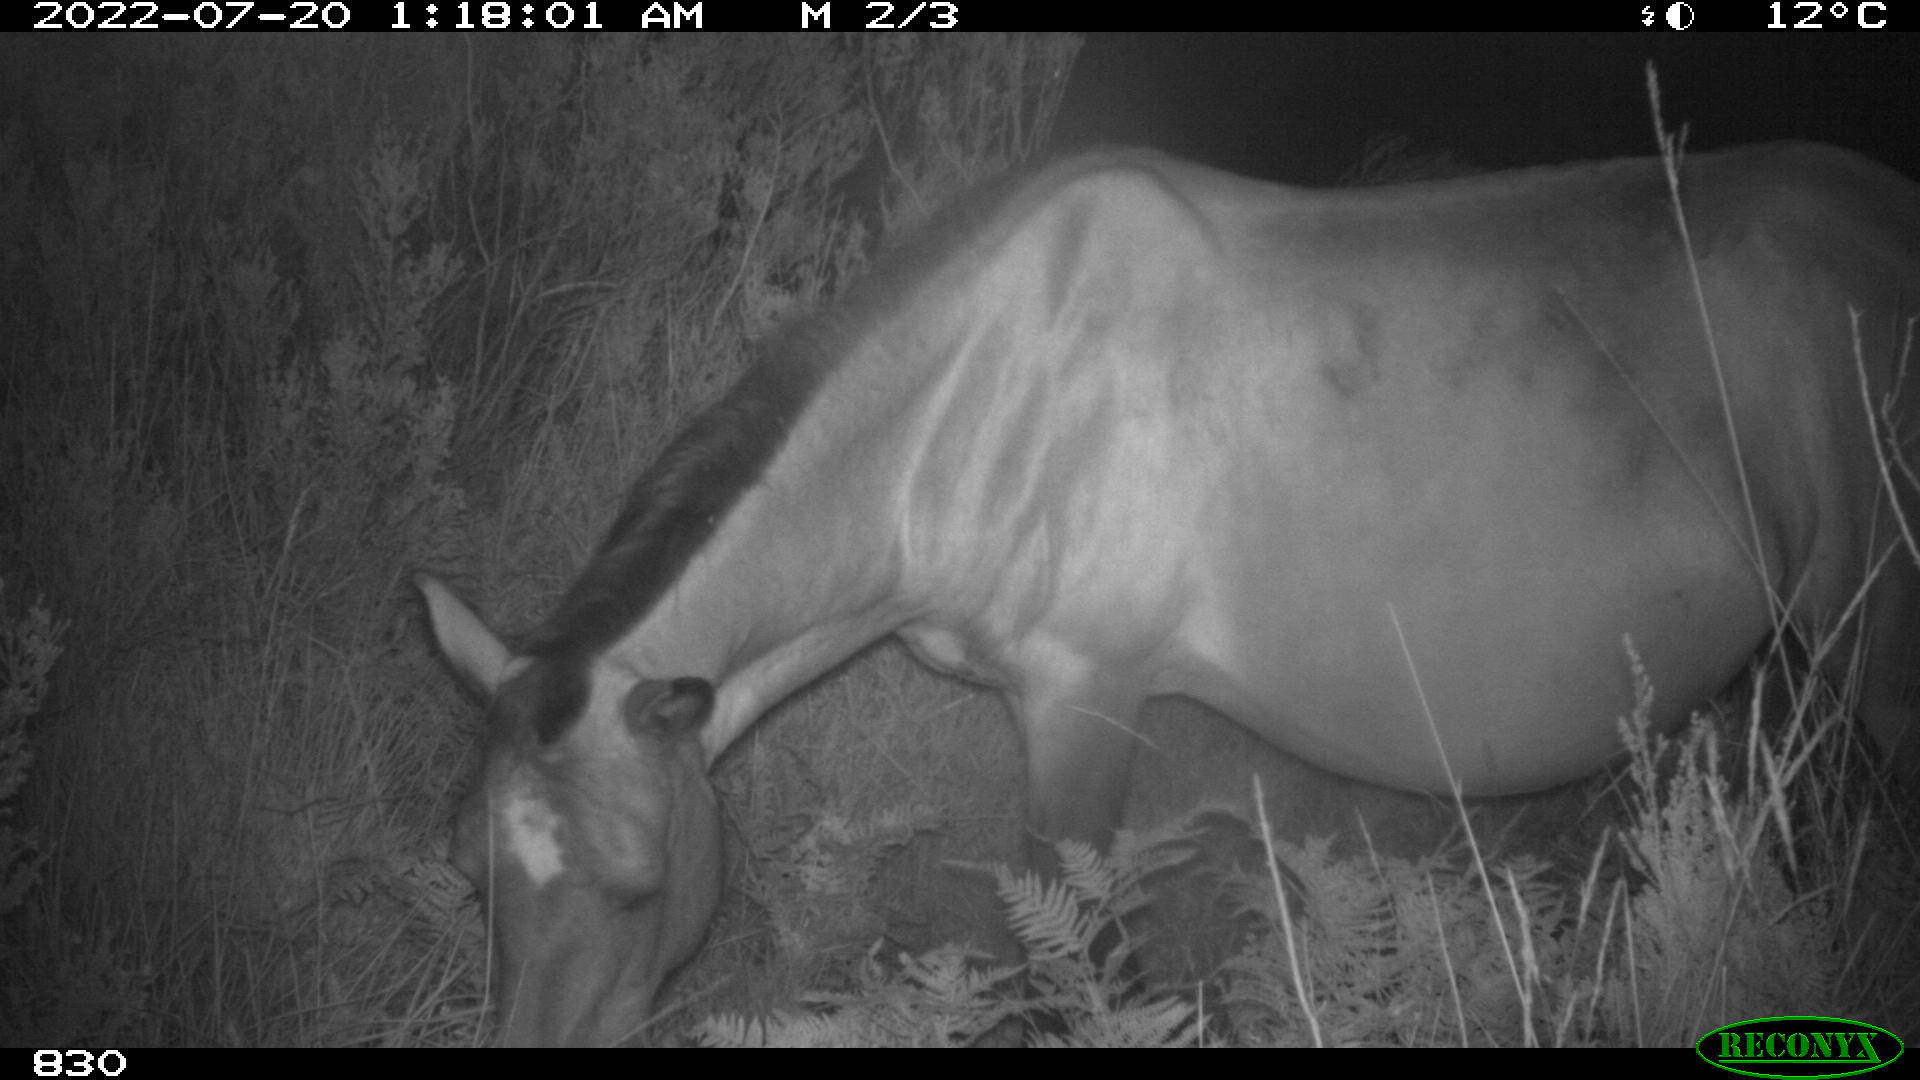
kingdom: Animalia
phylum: Chordata
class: Mammalia
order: Perissodactyla
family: Equidae
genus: Equus
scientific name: Equus caballus
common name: Horse
